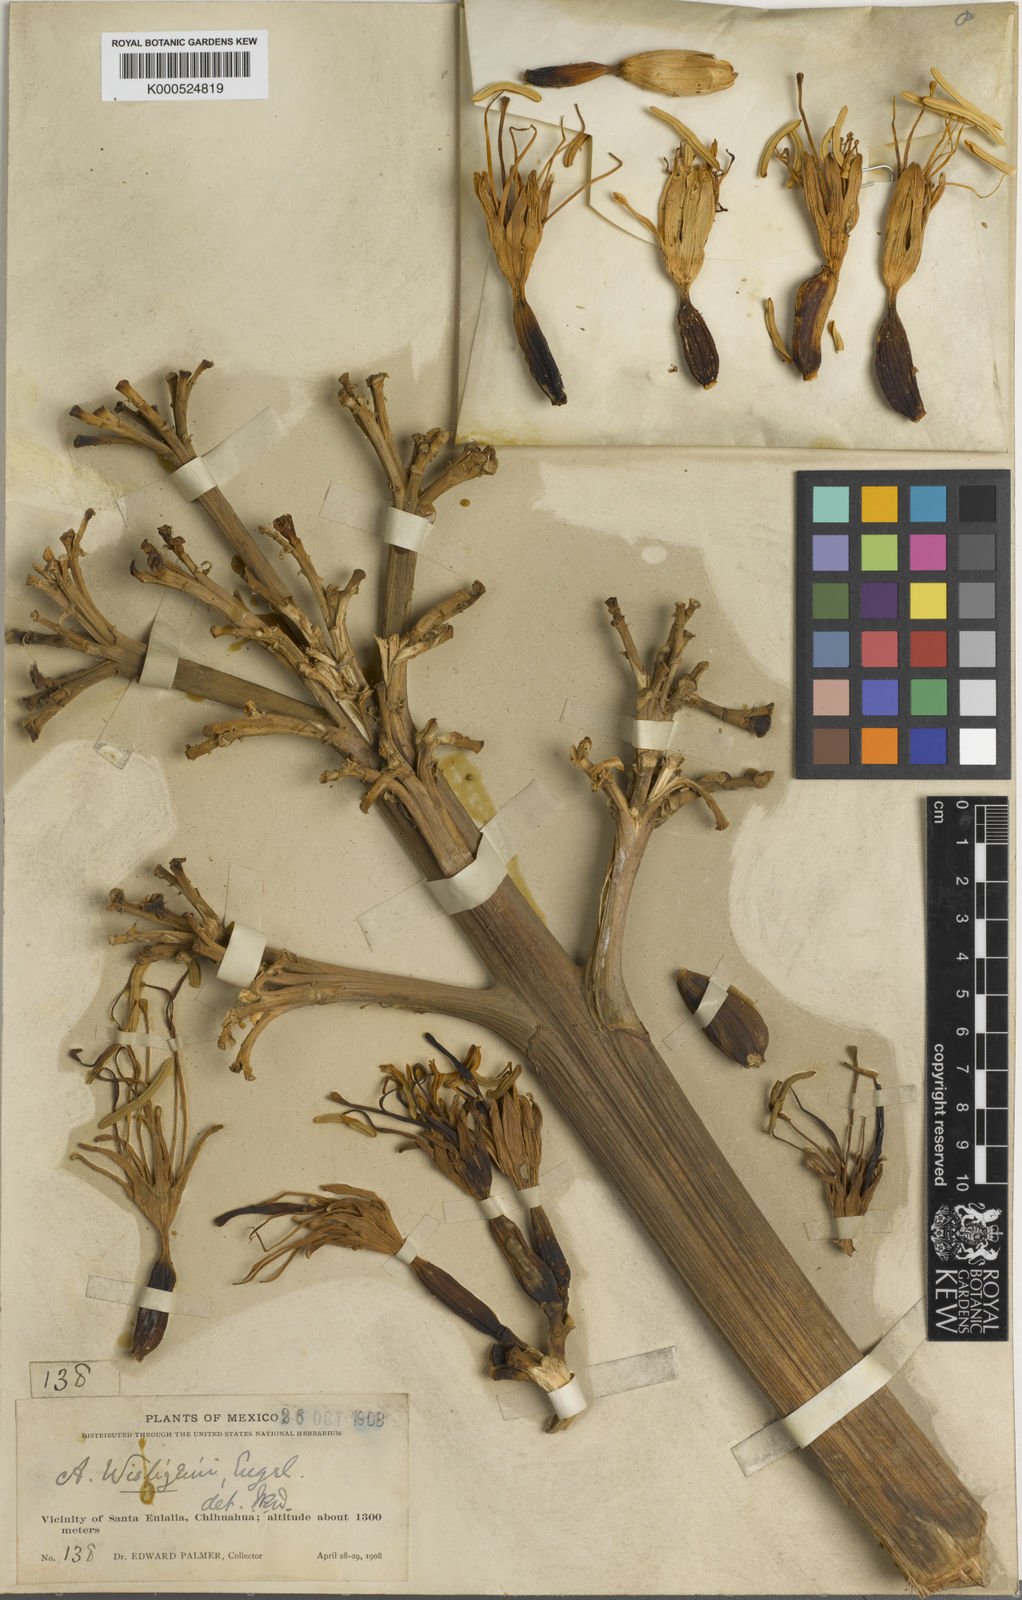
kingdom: Plantae
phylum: Tracheophyta
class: Liliopsida
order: Asparagales
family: Asparagaceae
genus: Agave
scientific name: Agave parryi
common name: Parry's agave
